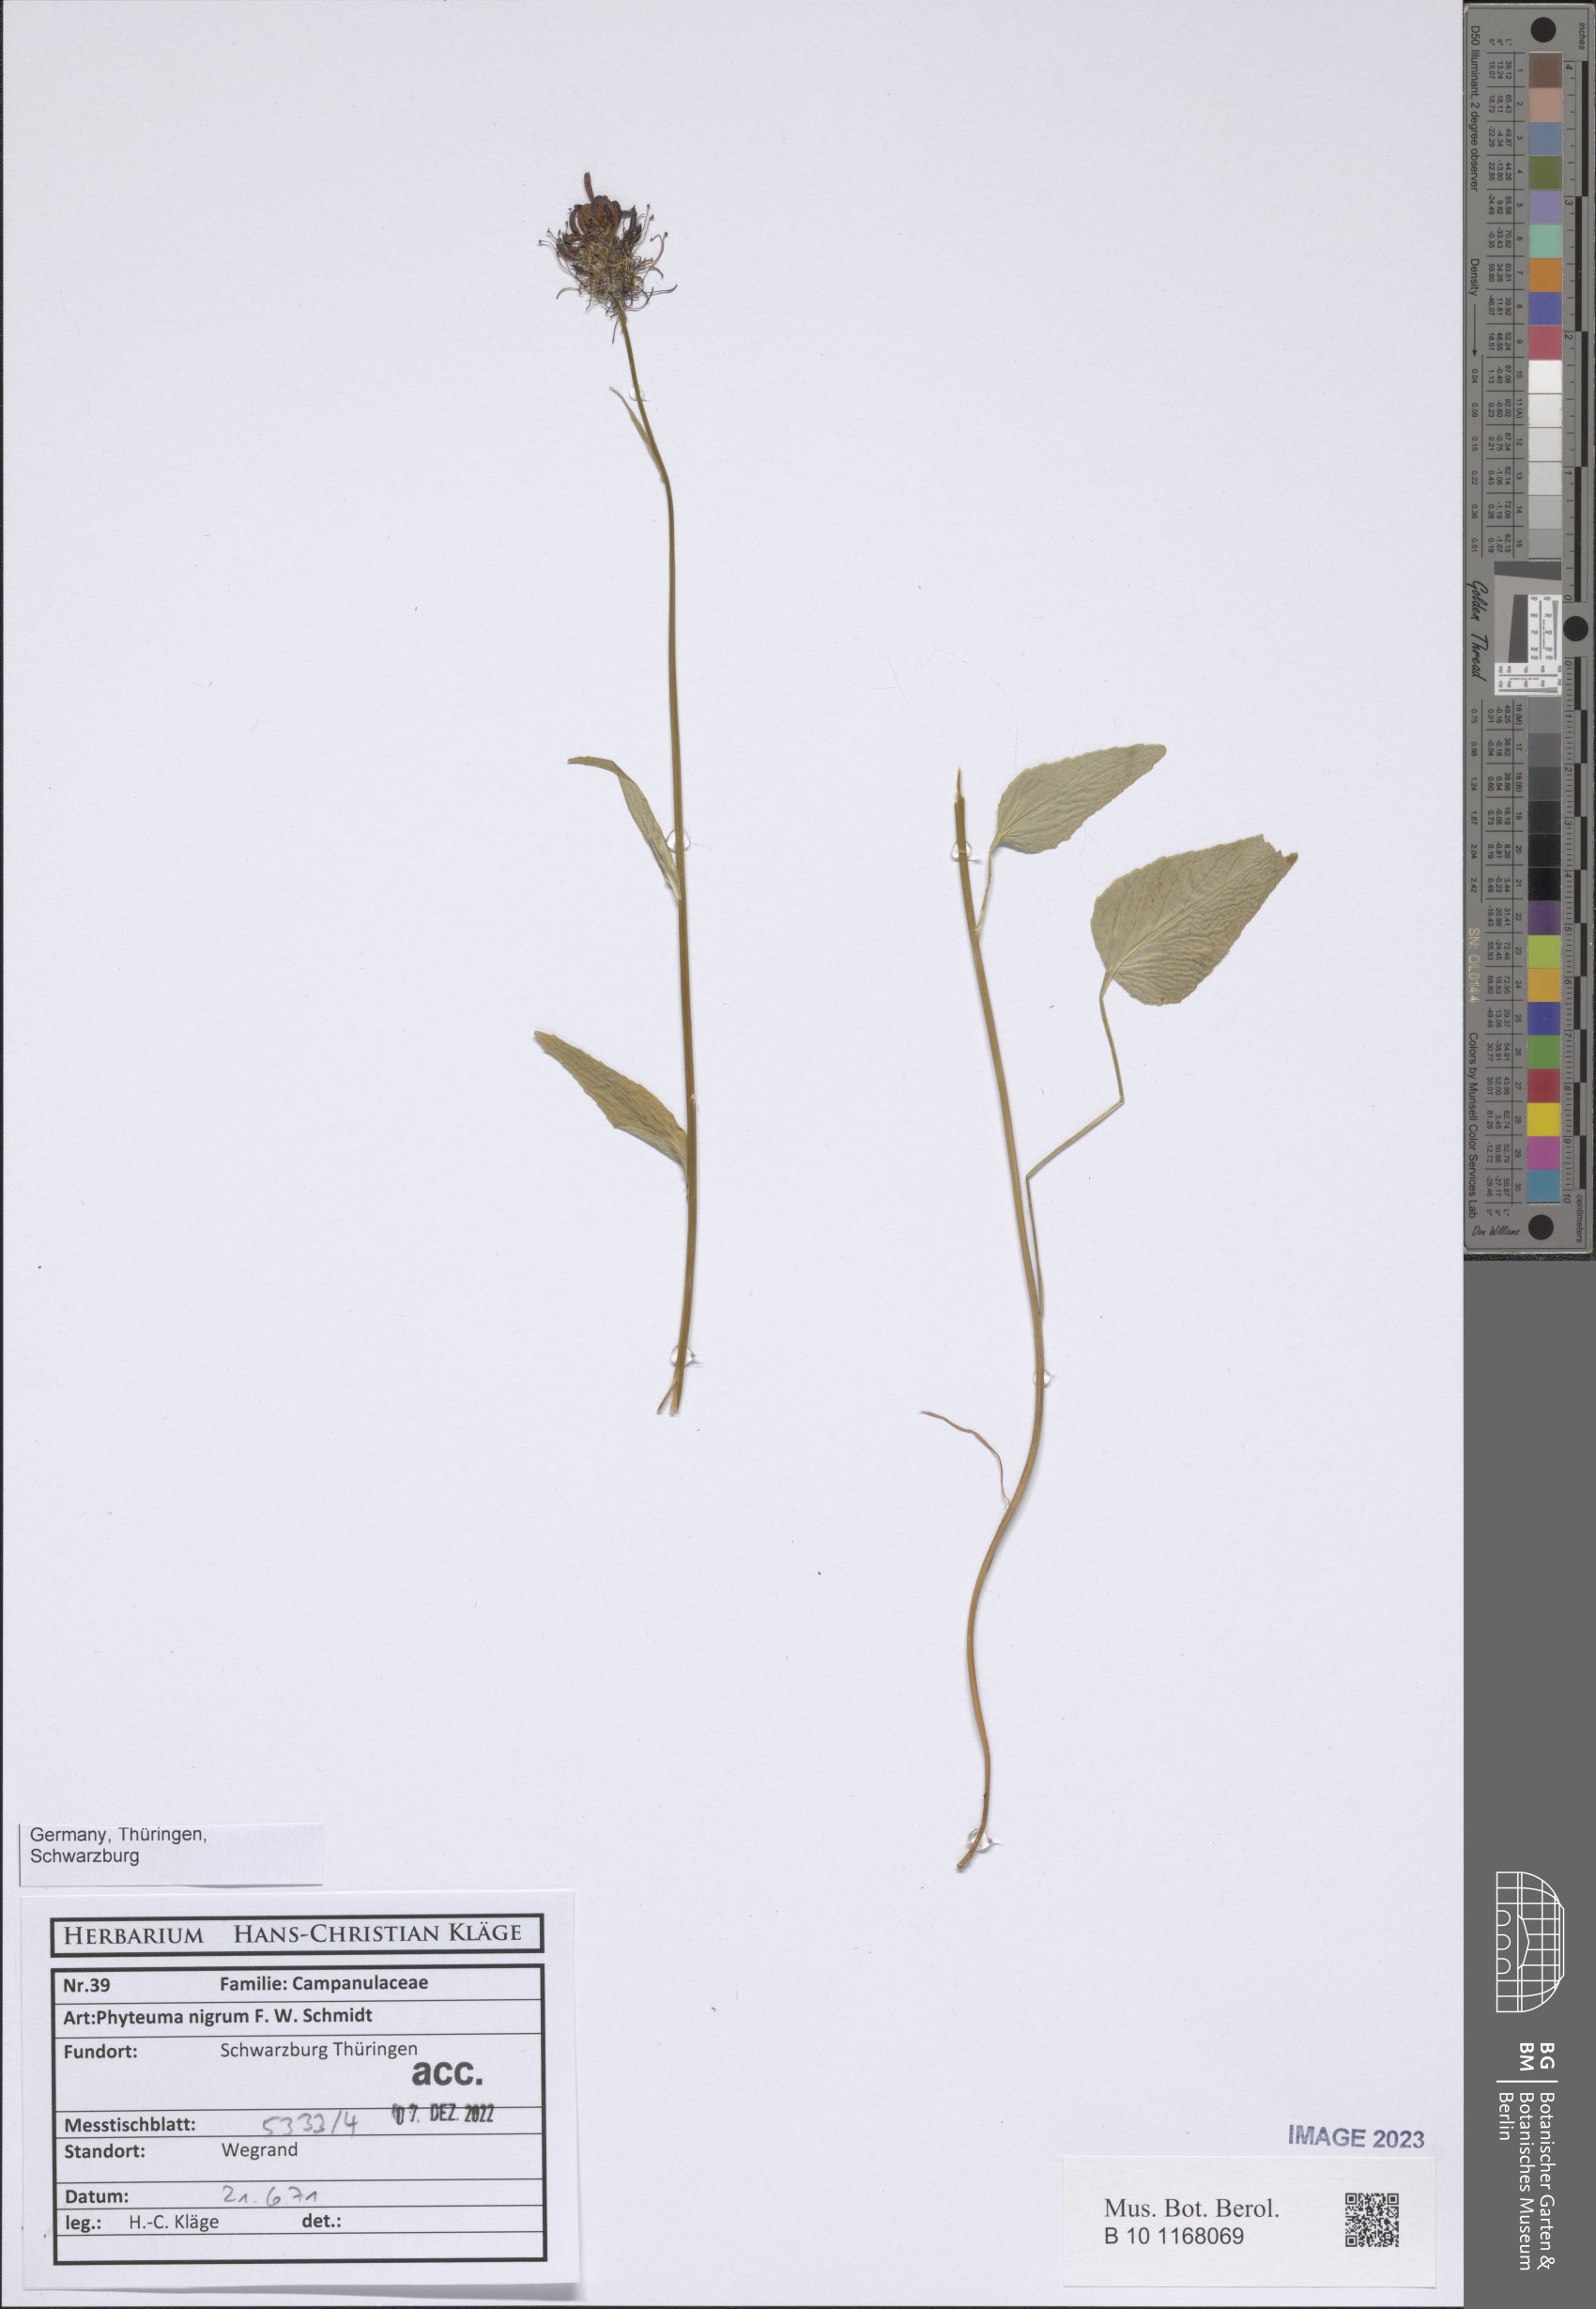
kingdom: Plantae
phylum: Tracheophyta
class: Magnoliopsida
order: Asterales
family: Campanulaceae
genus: Phyteuma
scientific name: Phyteuma nigrum
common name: Black rampion
